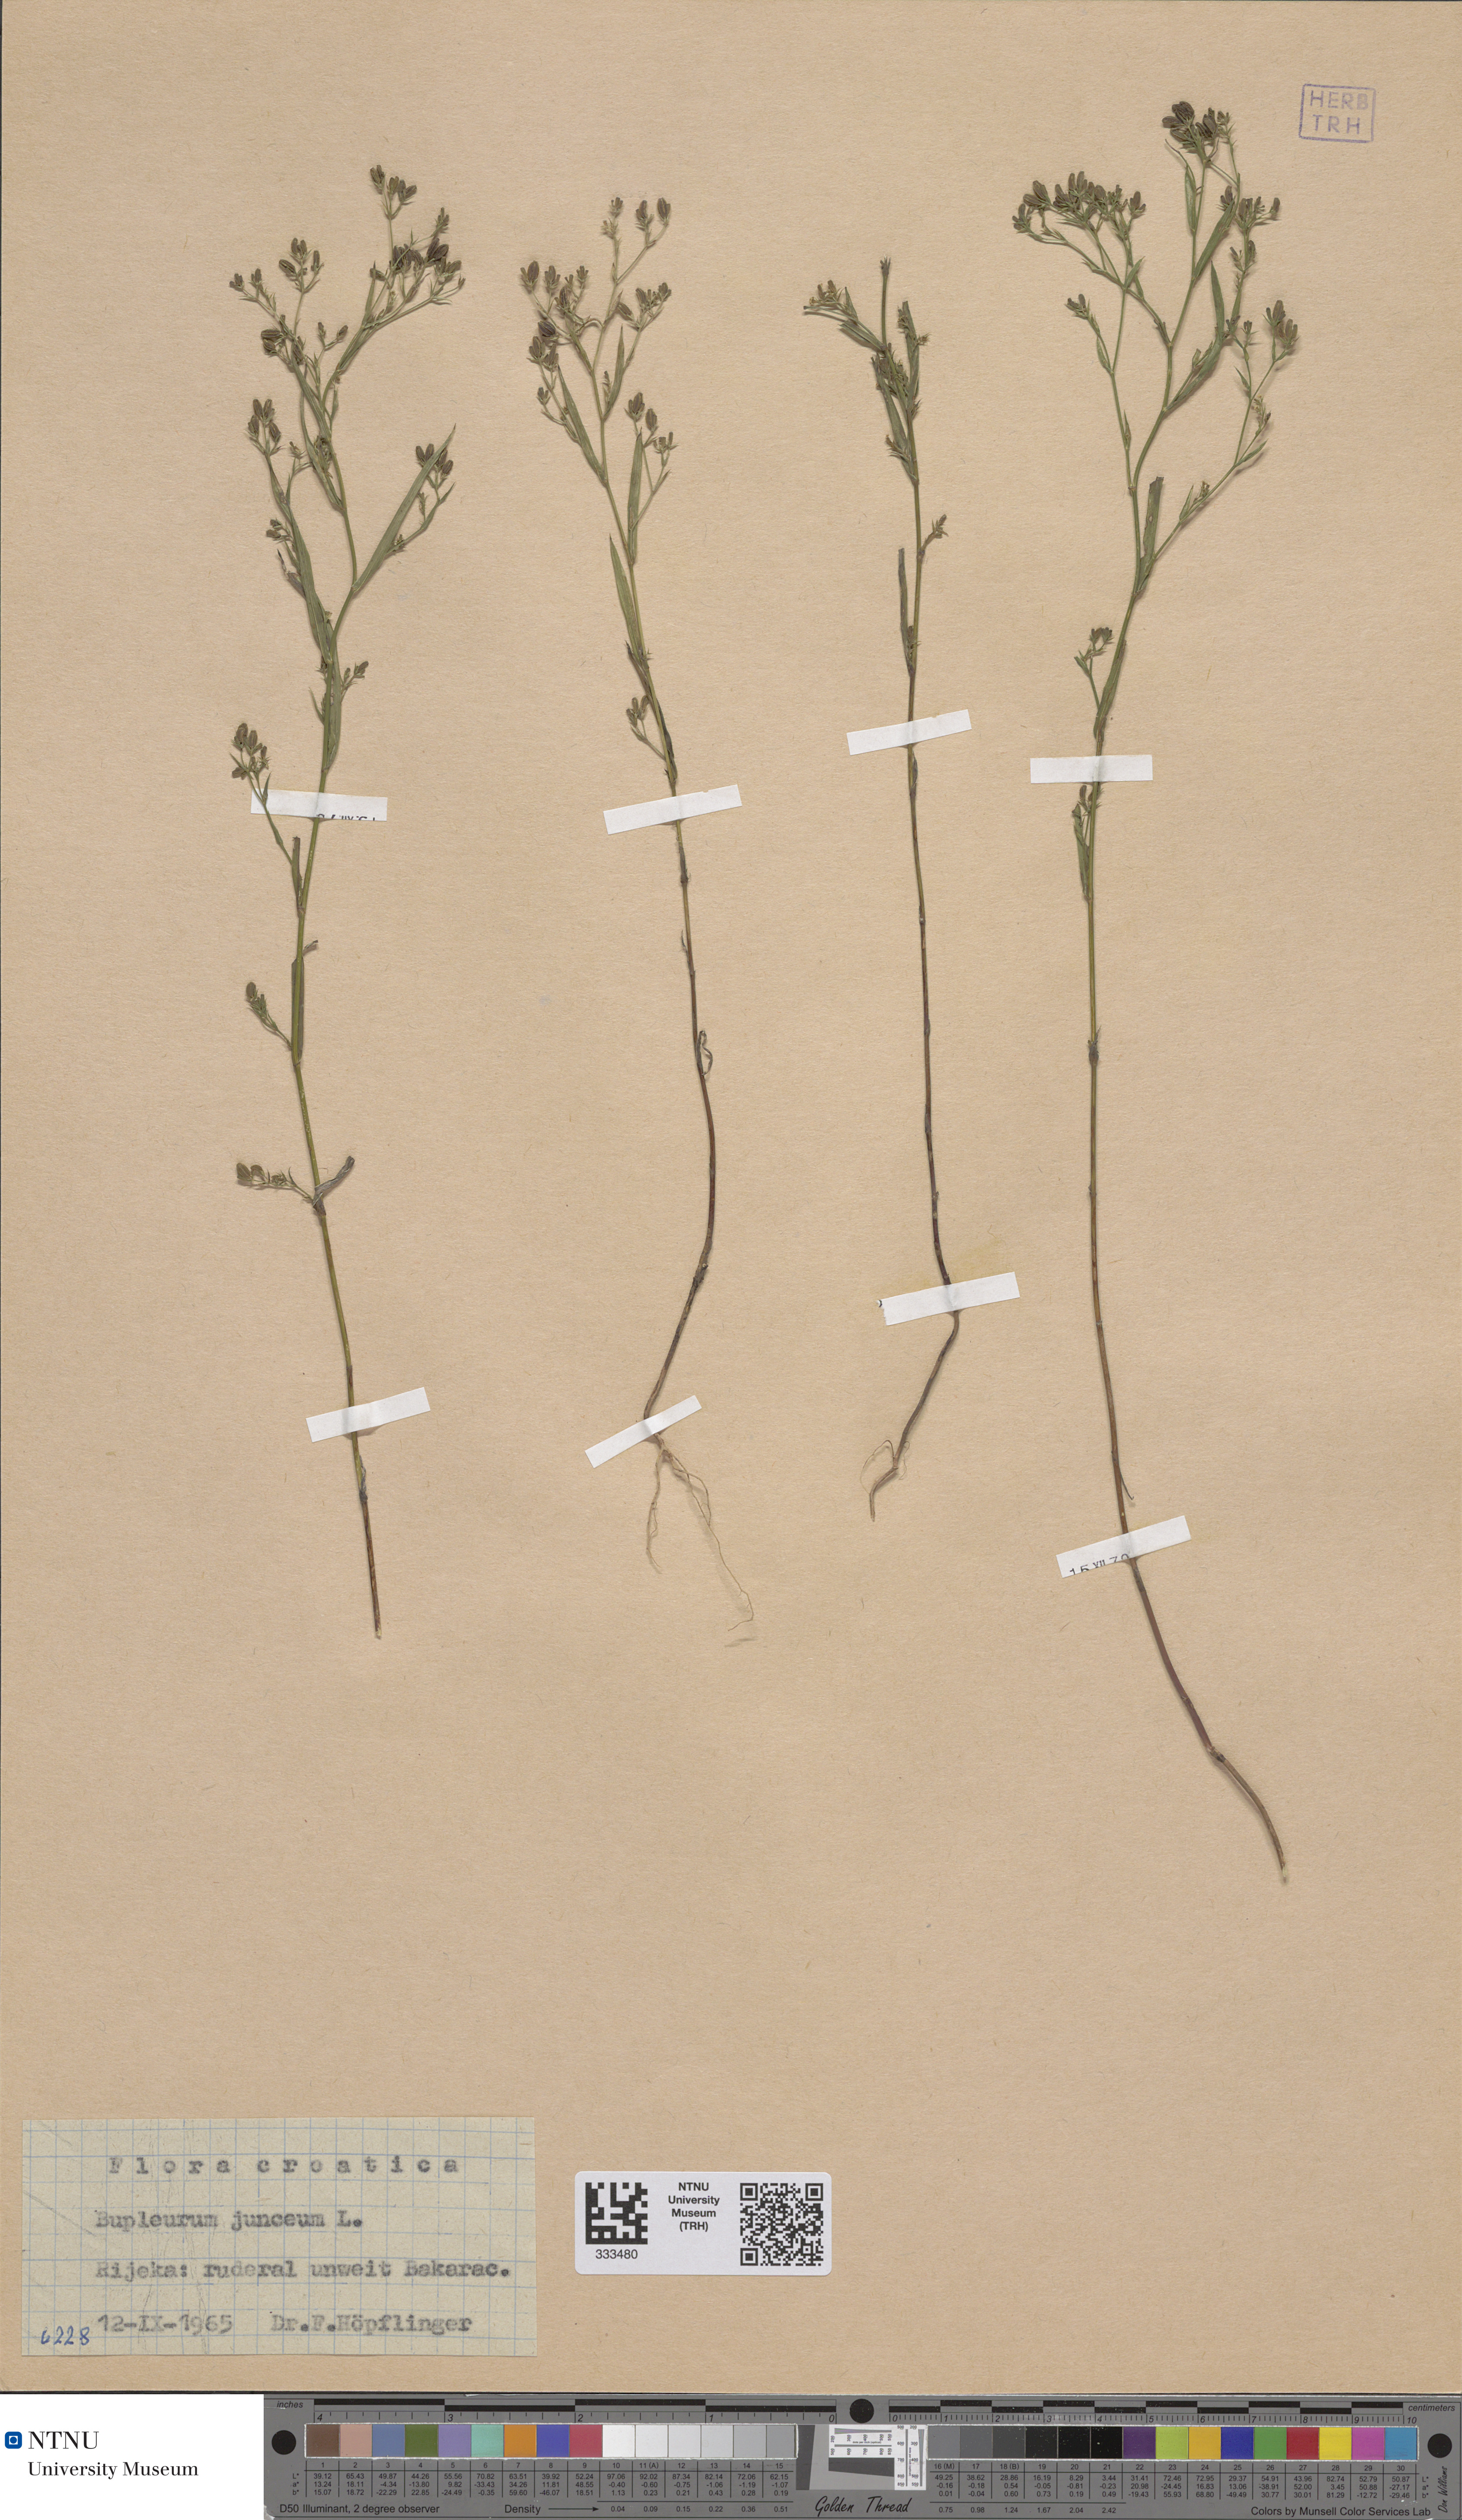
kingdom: Plantae
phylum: Tracheophyta
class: Magnoliopsida
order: Apiales
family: Apiaceae
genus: Bupleurum
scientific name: Bupleurum praealtum
